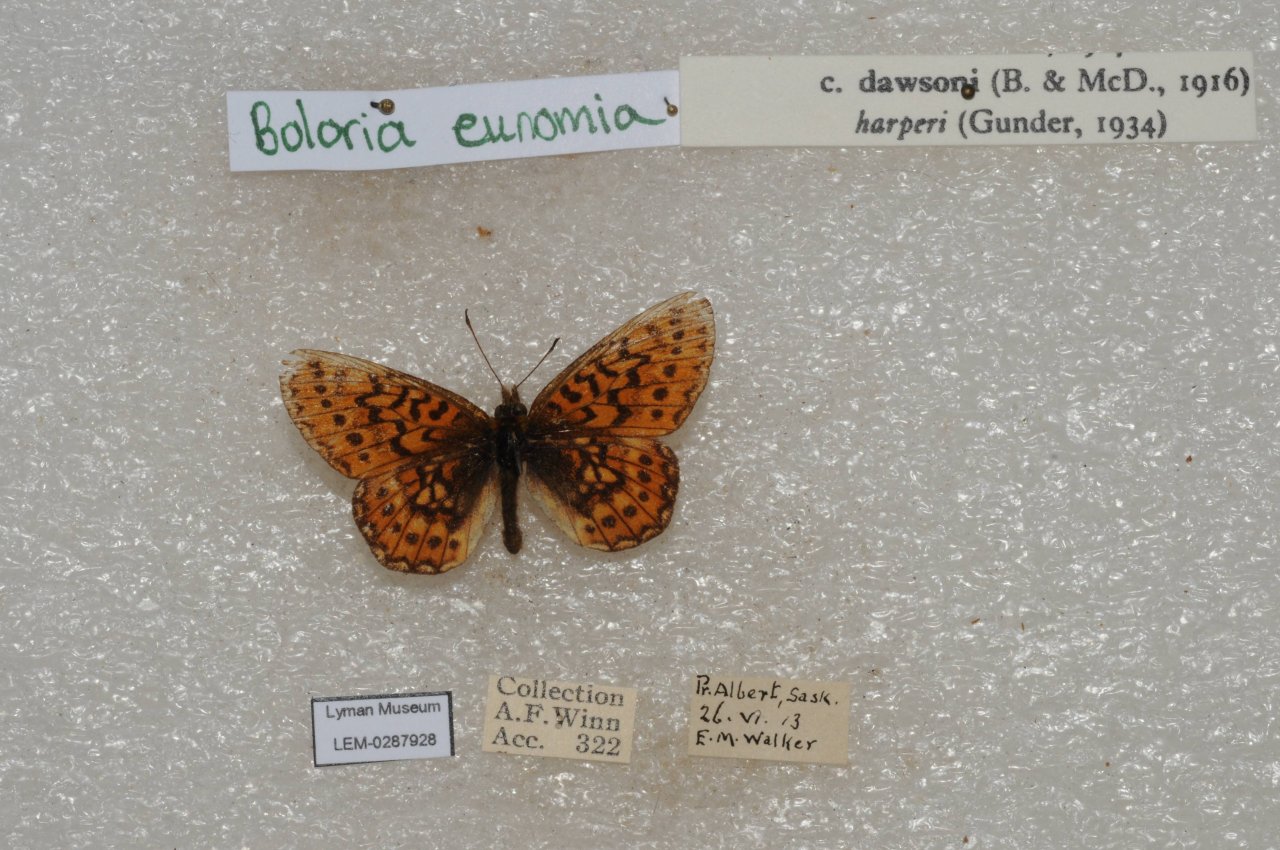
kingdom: Animalia
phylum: Arthropoda
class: Insecta
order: Lepidoptera
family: Nymphalidae
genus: Boloria
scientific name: Boloria eunomia
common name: Bog Fritillary
